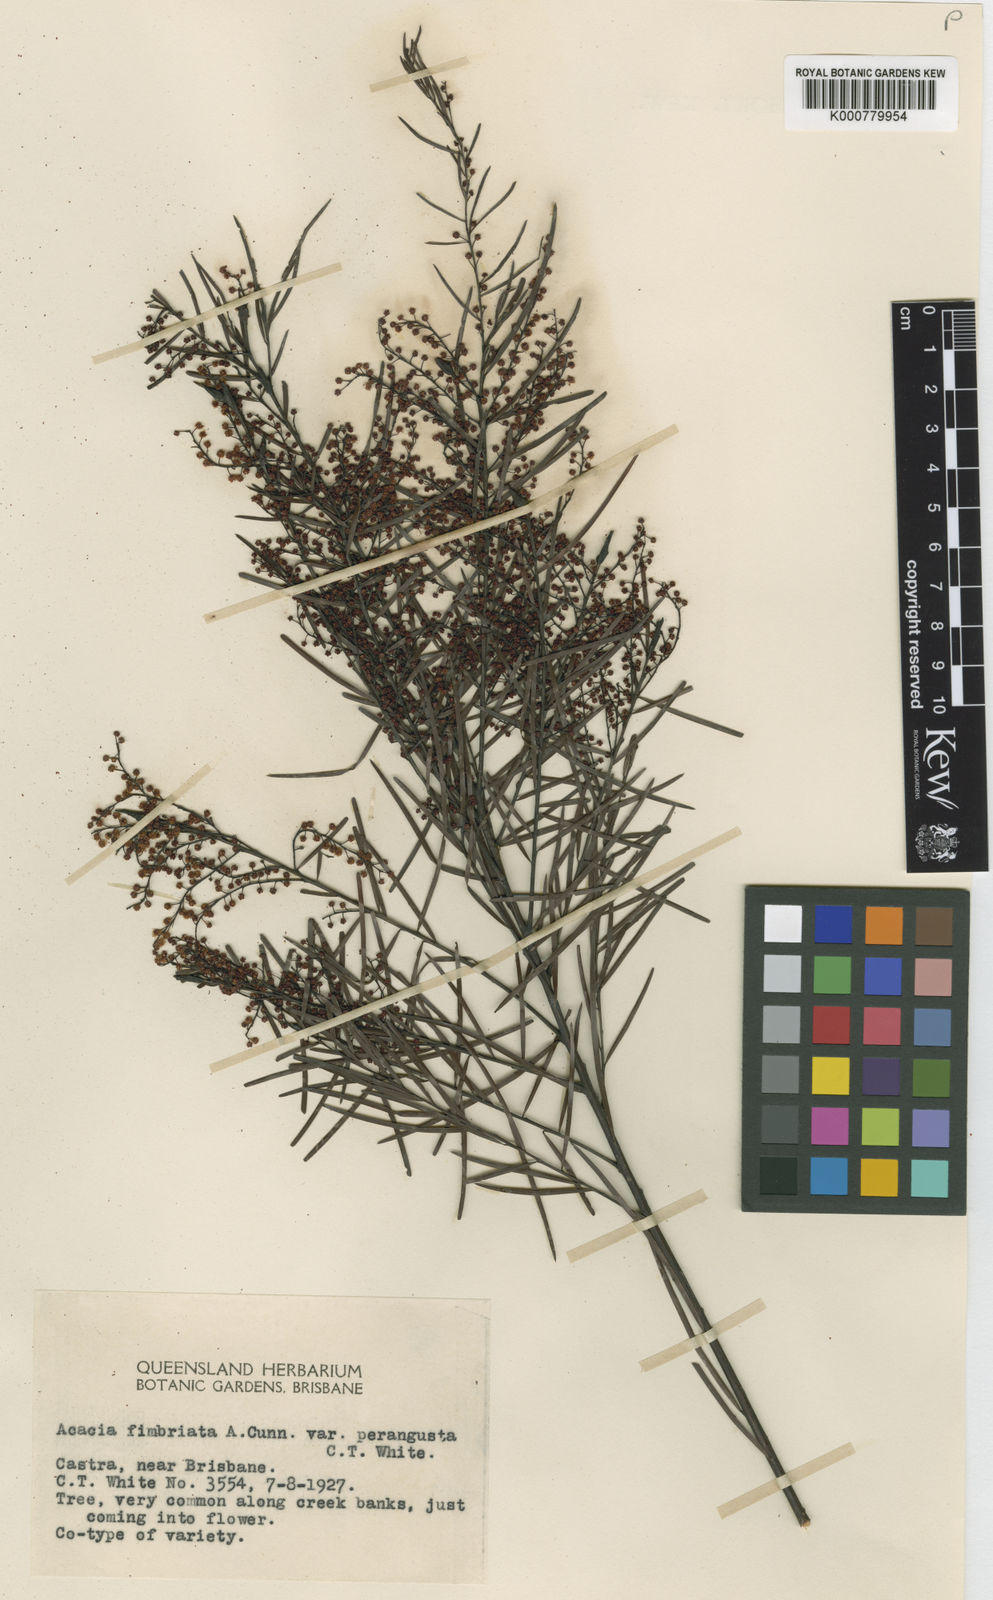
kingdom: Plantae
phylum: Tracheophyta
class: Magnoliopsida
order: Fabales
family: Fabaceae
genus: Acacia
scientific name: Acacia fimbriata
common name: Brisbane golden wattle
